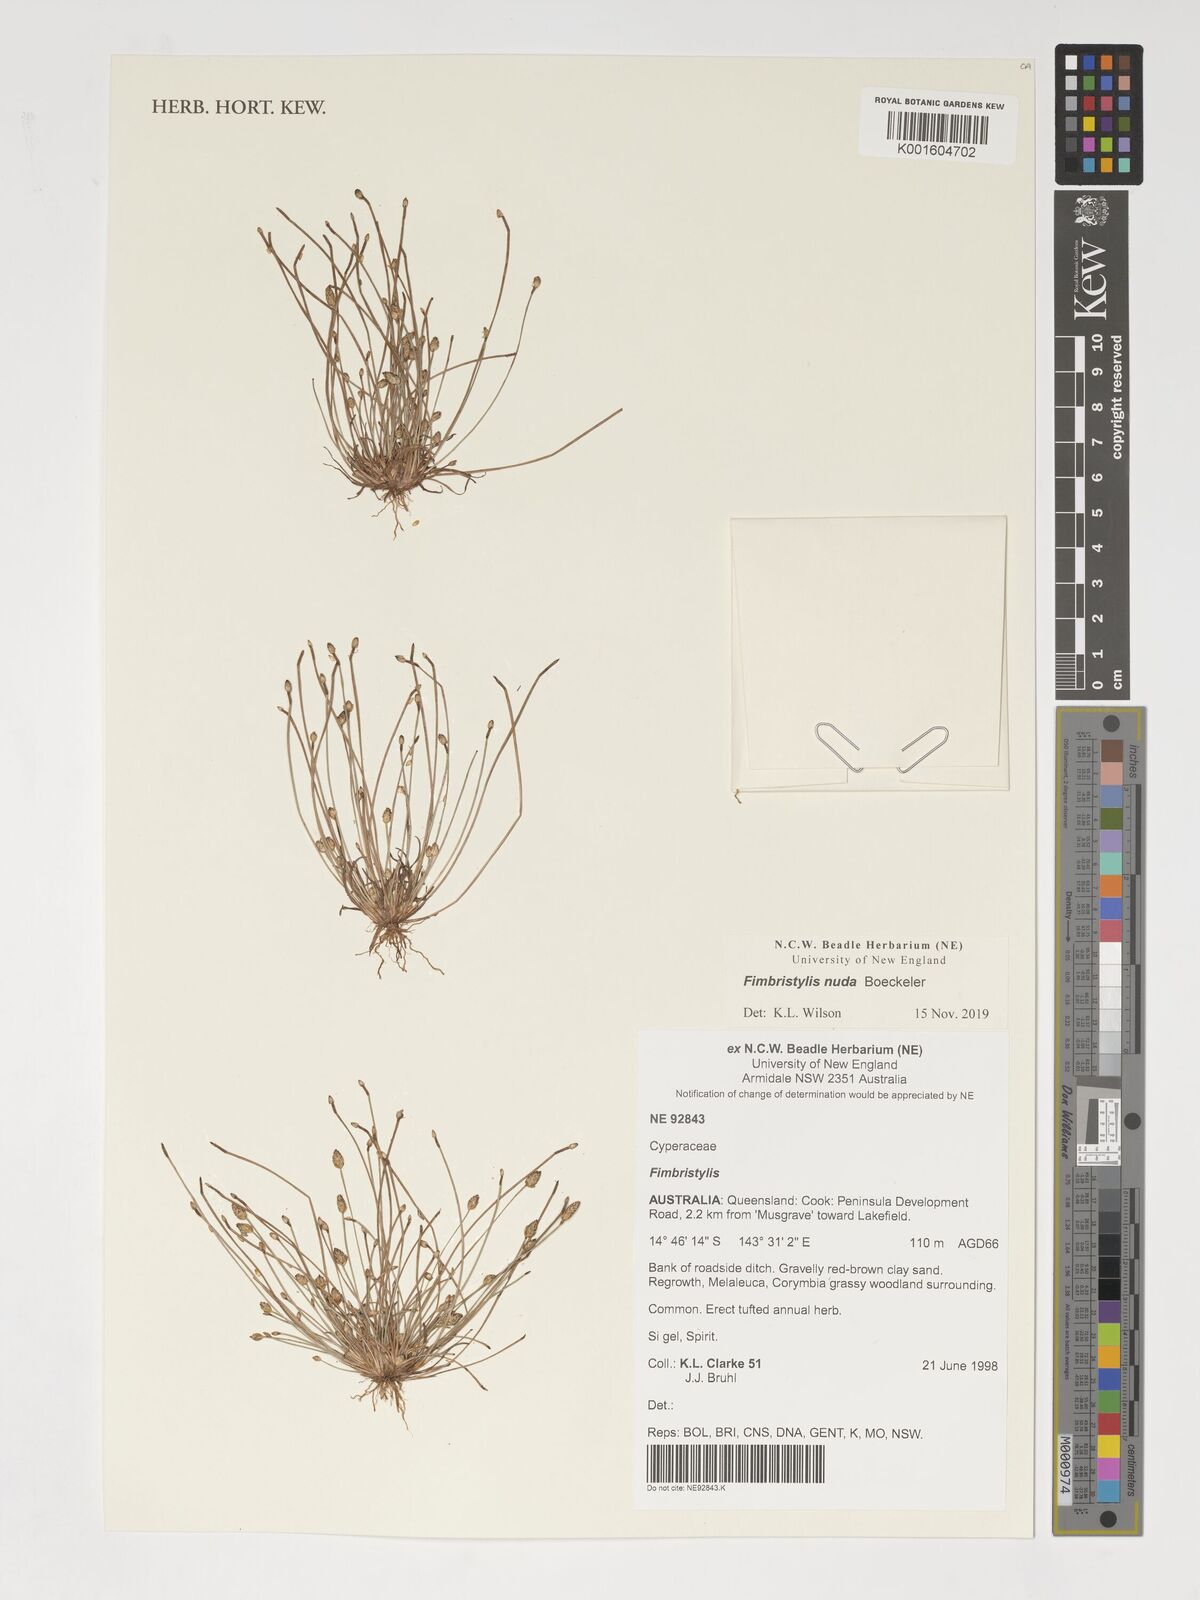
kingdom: Plantae
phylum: Tracheophyta
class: Liliopsida
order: Poales
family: Cyperaceae
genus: Fimbristylis
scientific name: Fimbristylis
